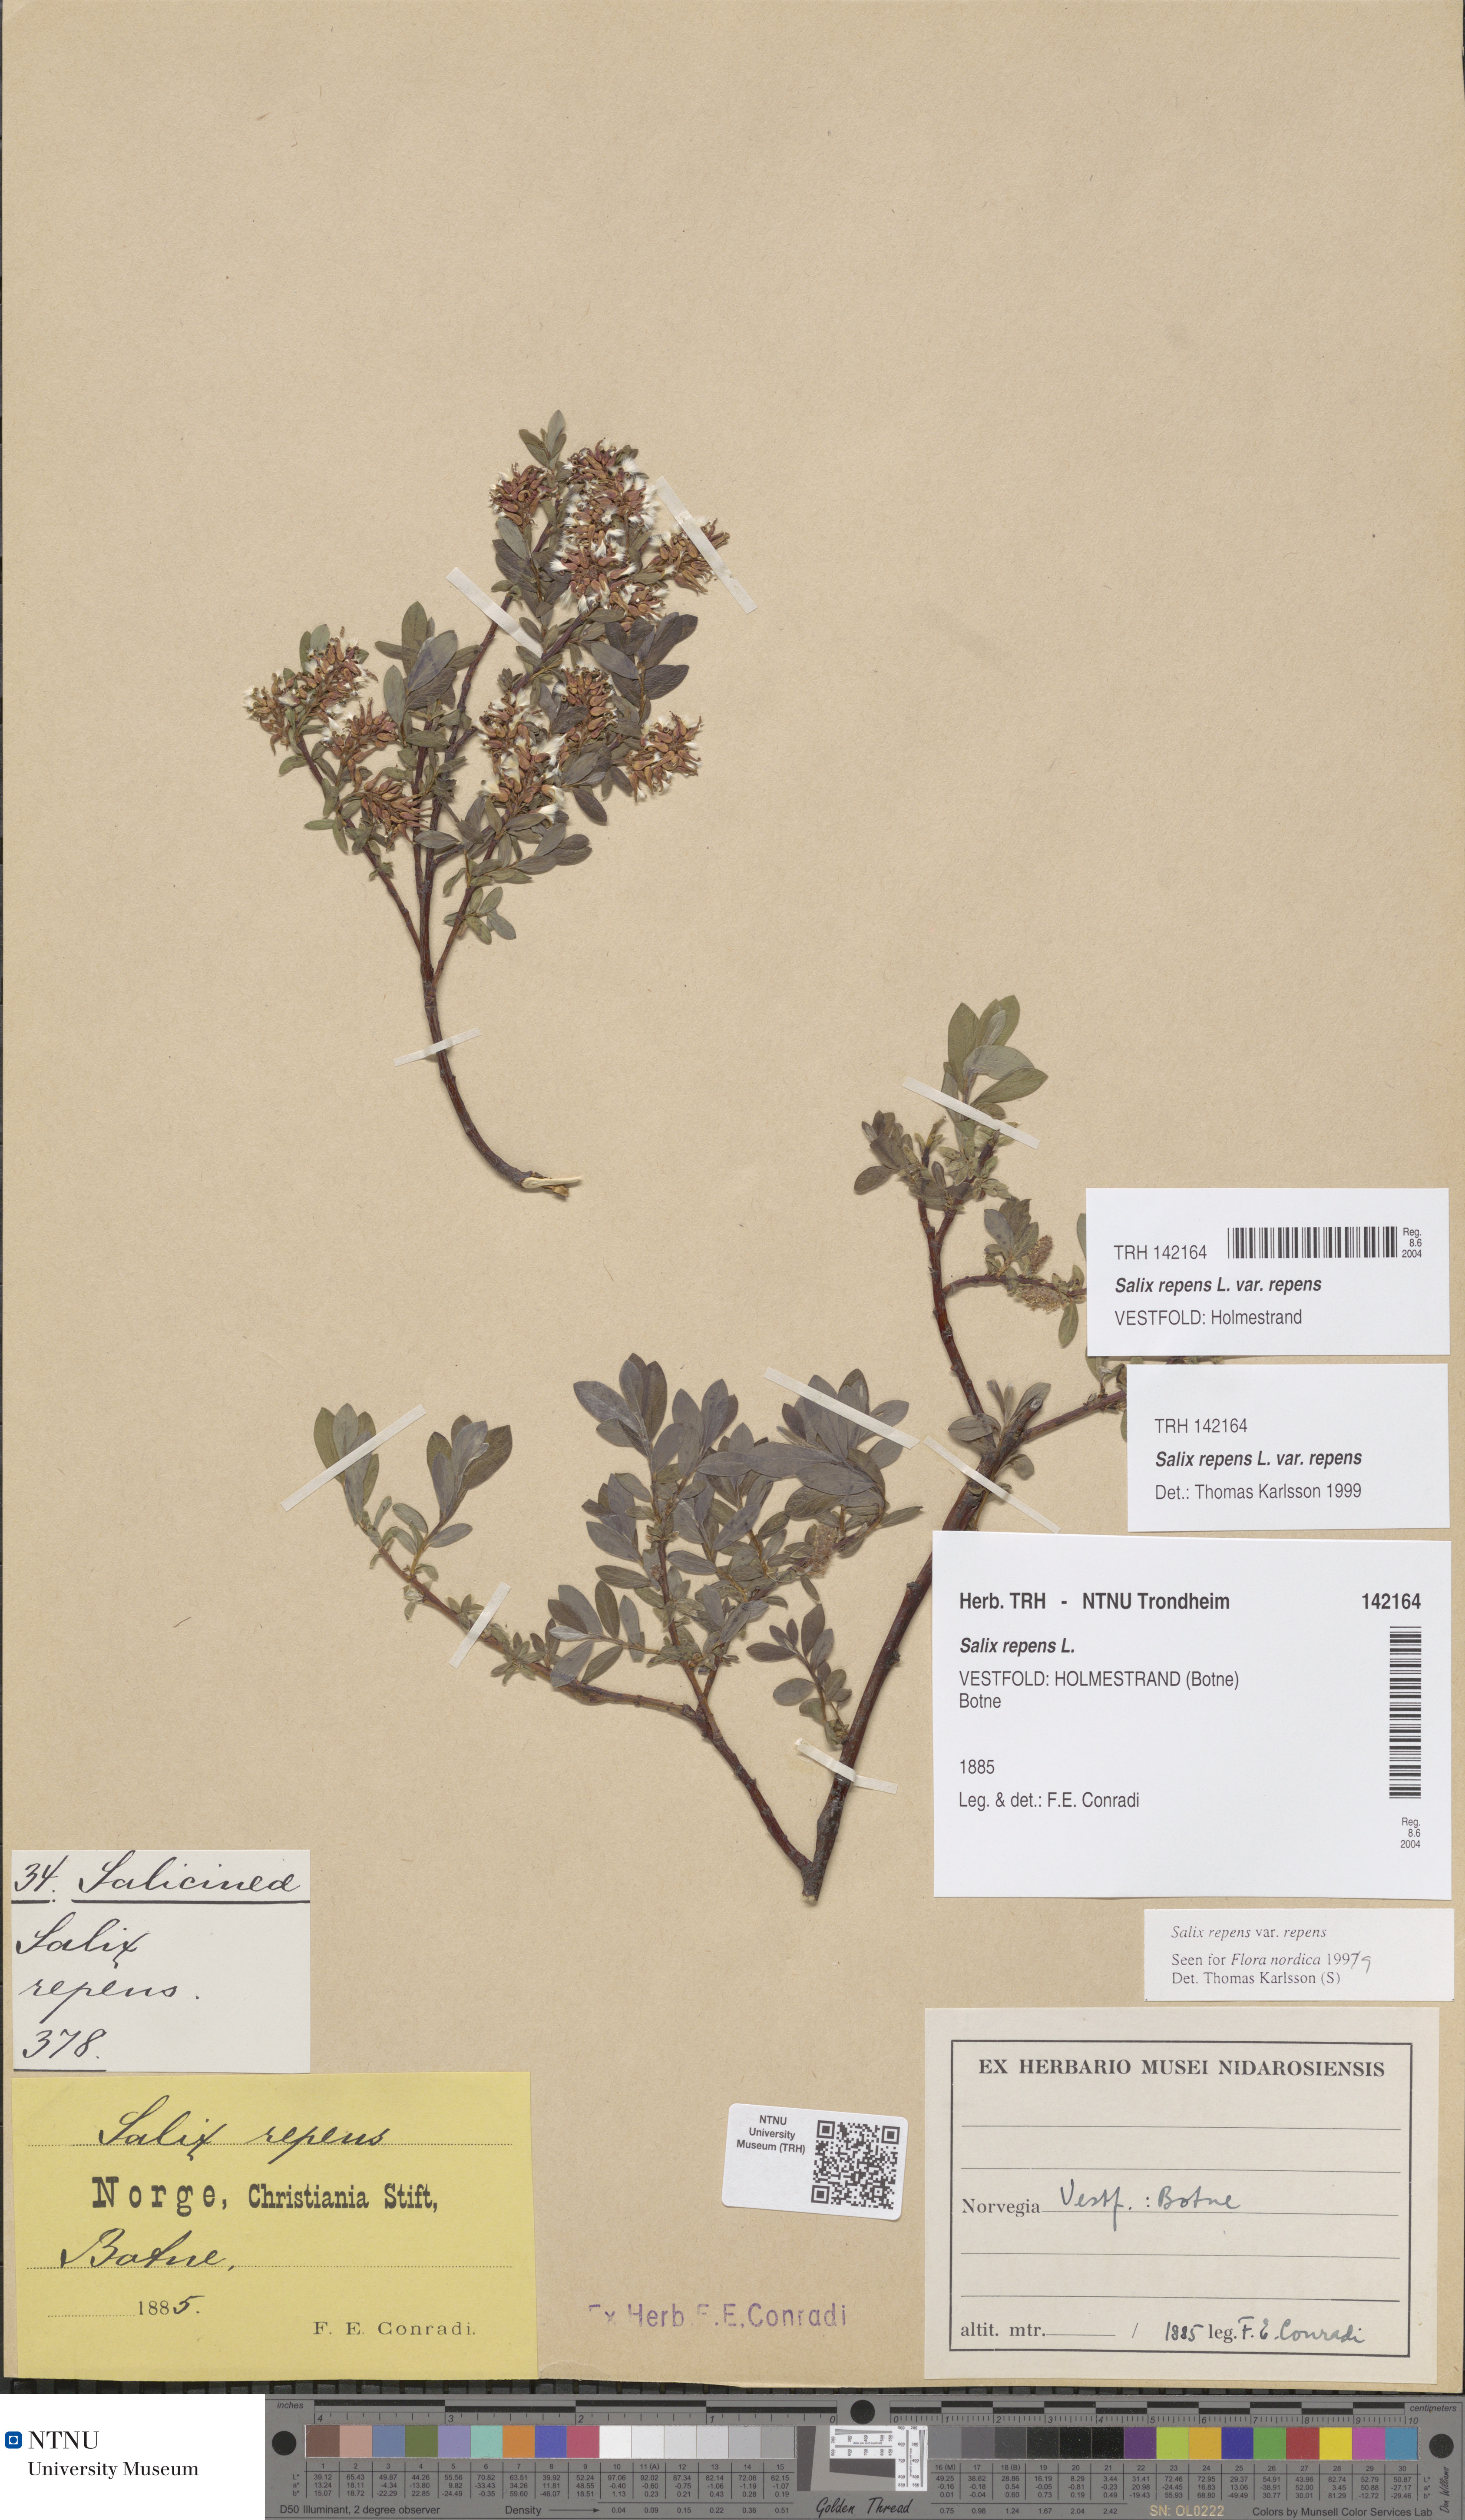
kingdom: Plantae
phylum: Tracheophyta
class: Magnoliopsida
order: Malpighiales
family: Salicaceae
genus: Salix
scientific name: Salix repens
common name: Creeping willow
